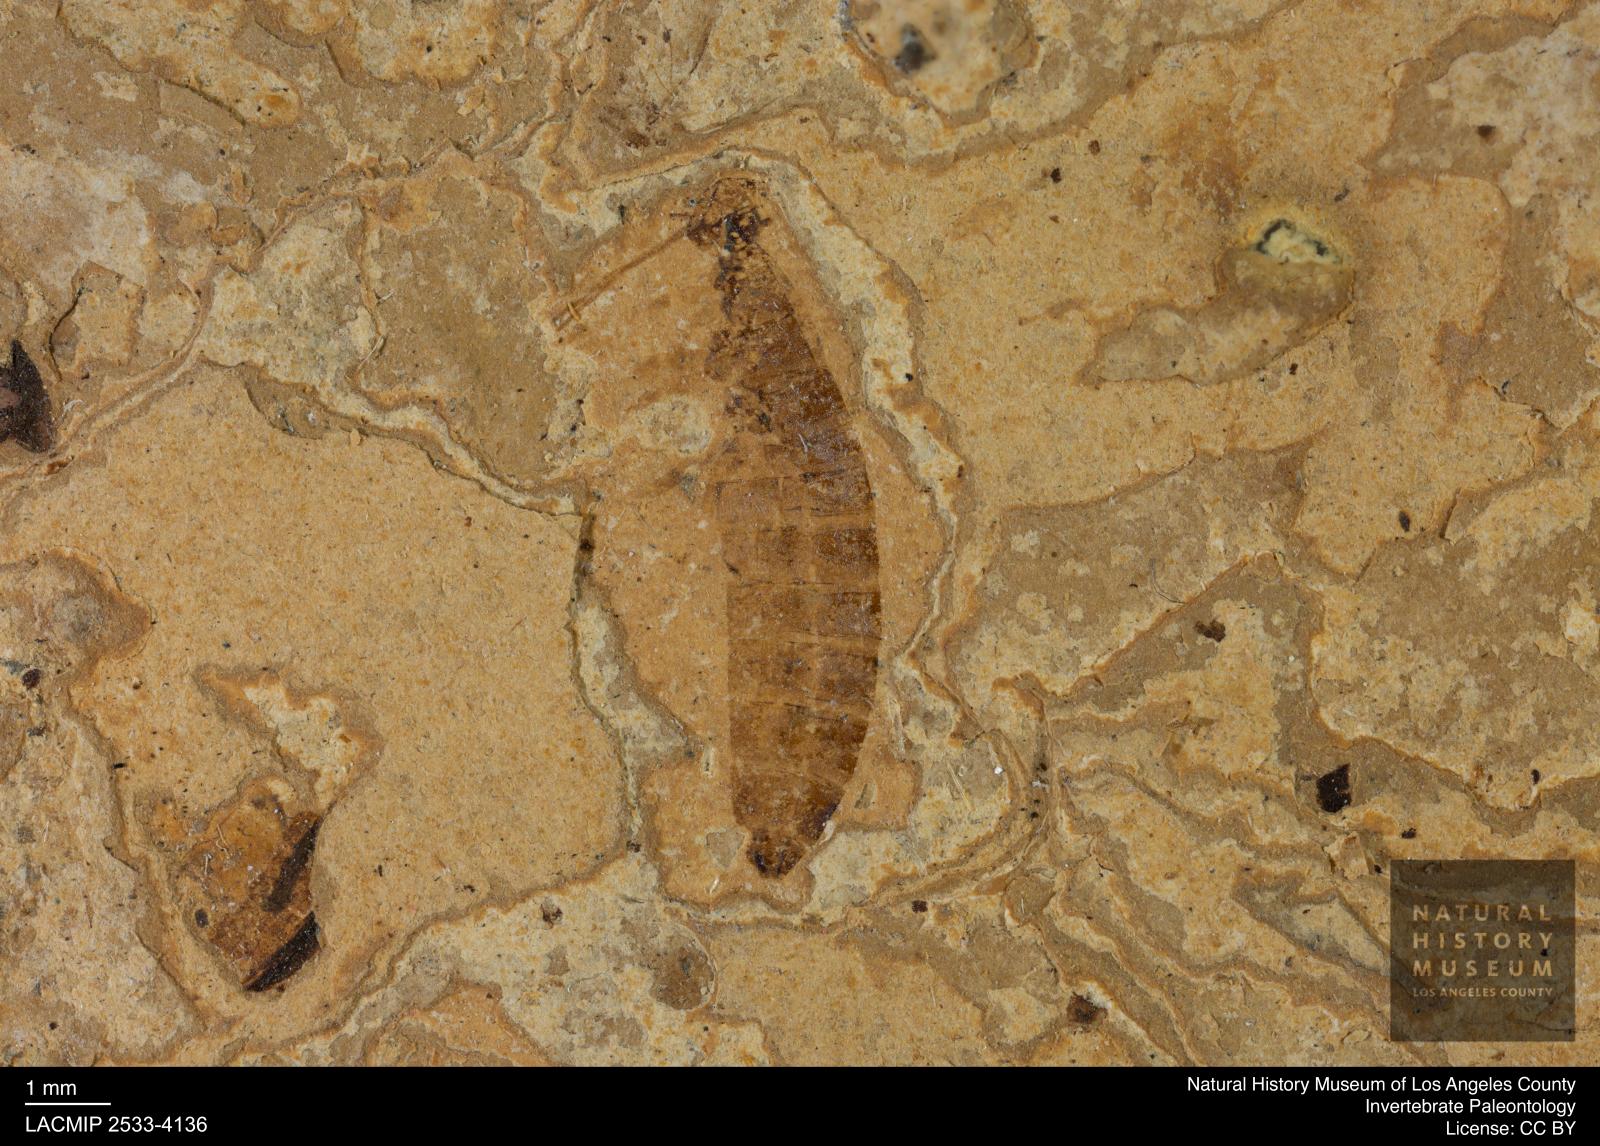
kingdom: Animalia
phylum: Arthropoda
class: Insecta
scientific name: Insecta
